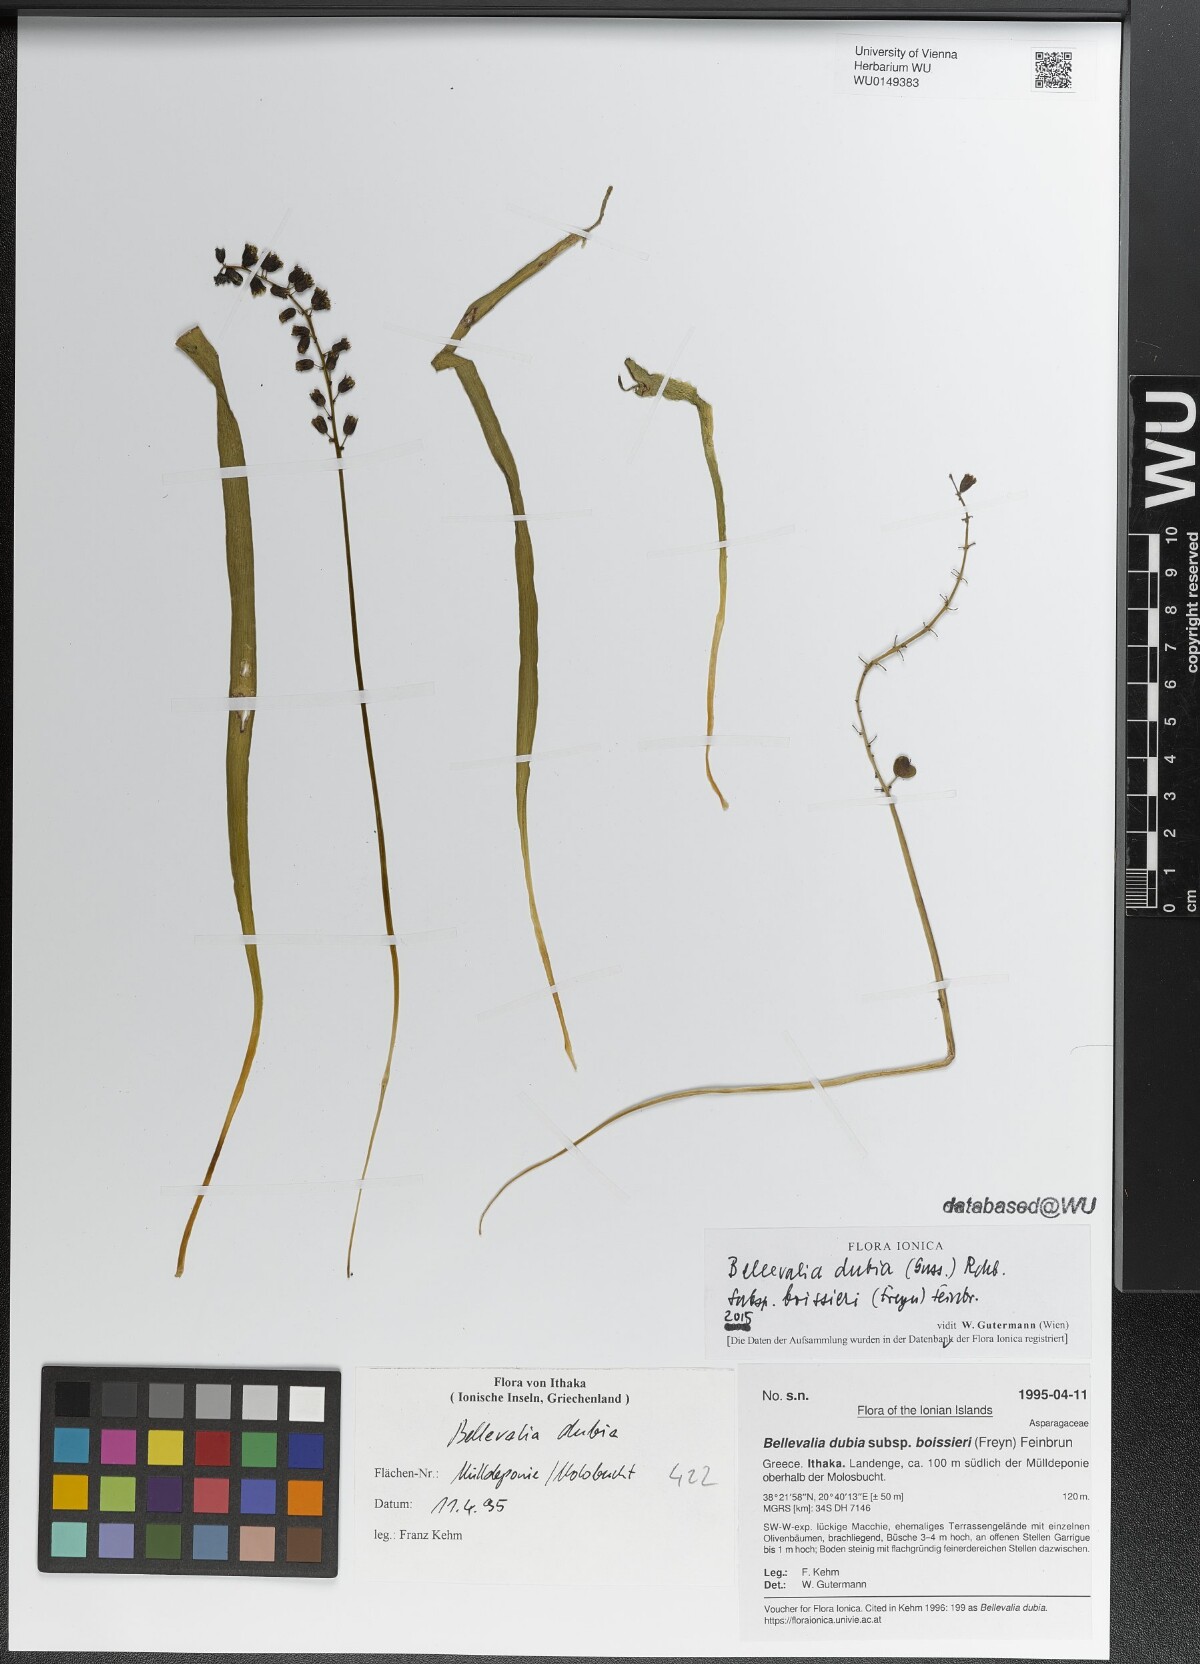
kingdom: Plantae
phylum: Tracheophyta
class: Liliopsida
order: Asparagales
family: Asparagaceae
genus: Bellevalia
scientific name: Bellevalia dubia
